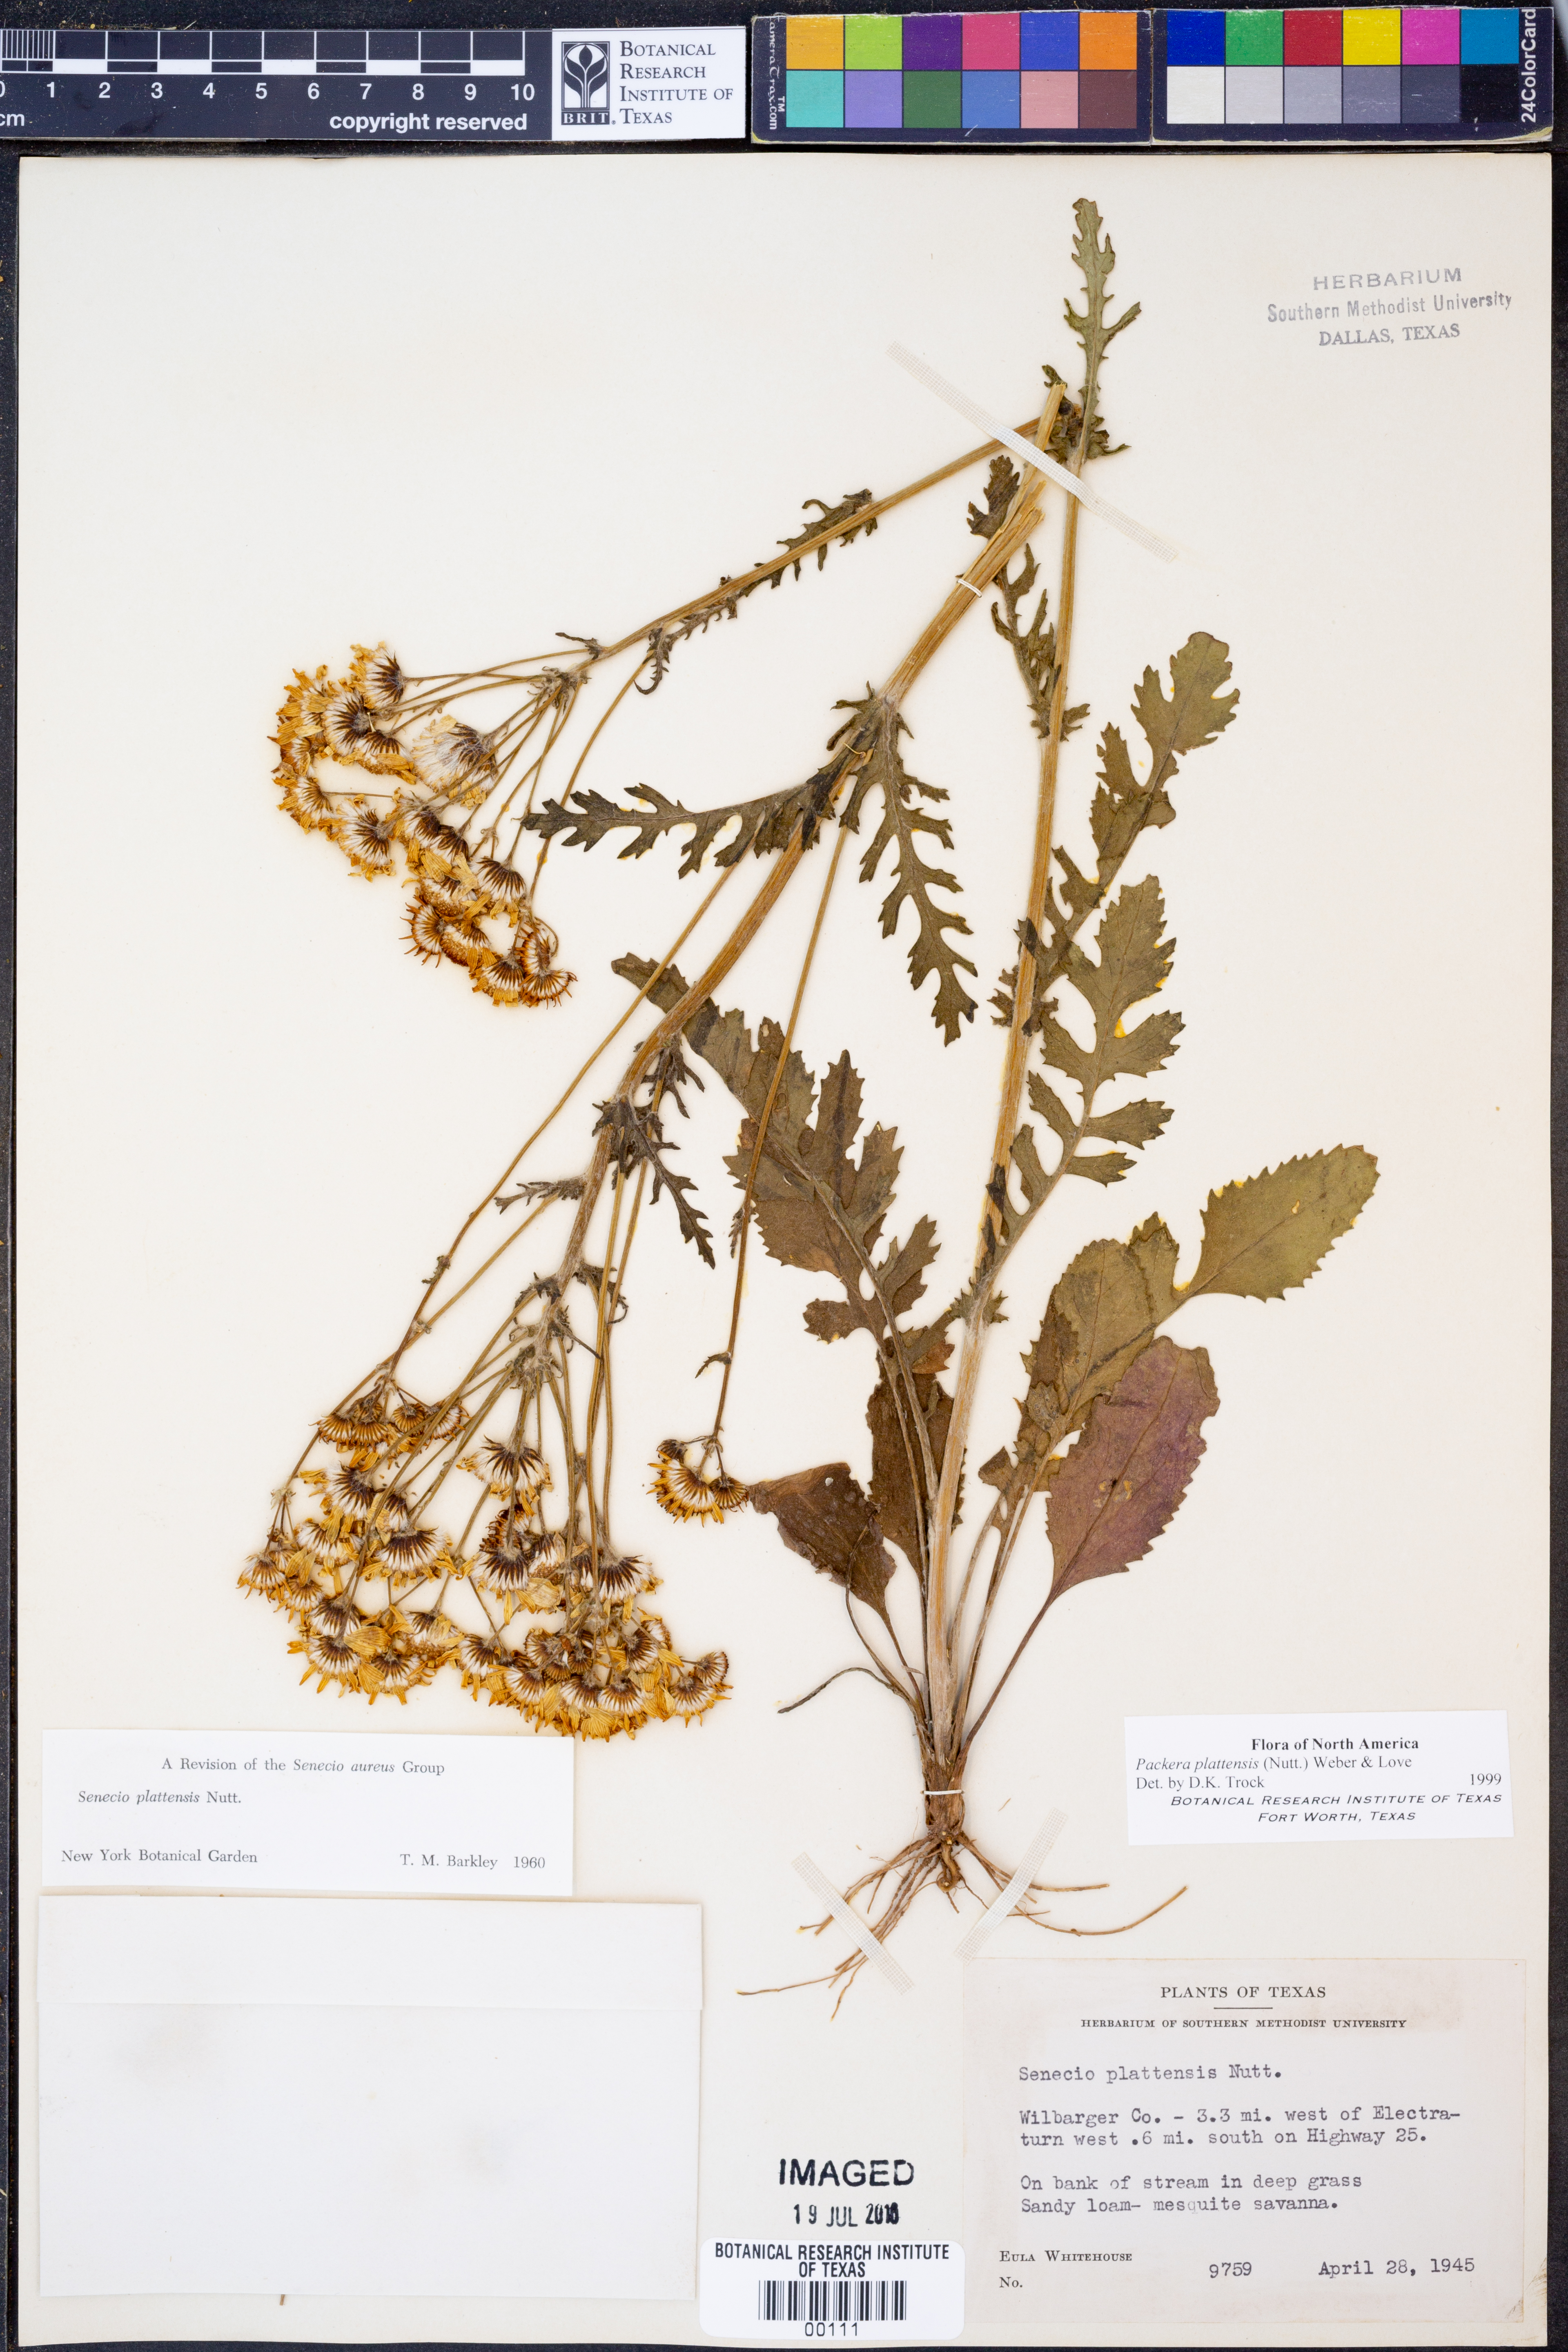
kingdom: Plantae
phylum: Tracheophyta
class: Magnoliopsida
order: Asterales
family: Asteraceae
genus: Packera
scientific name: Packera plattensis
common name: Prairie groundsel
